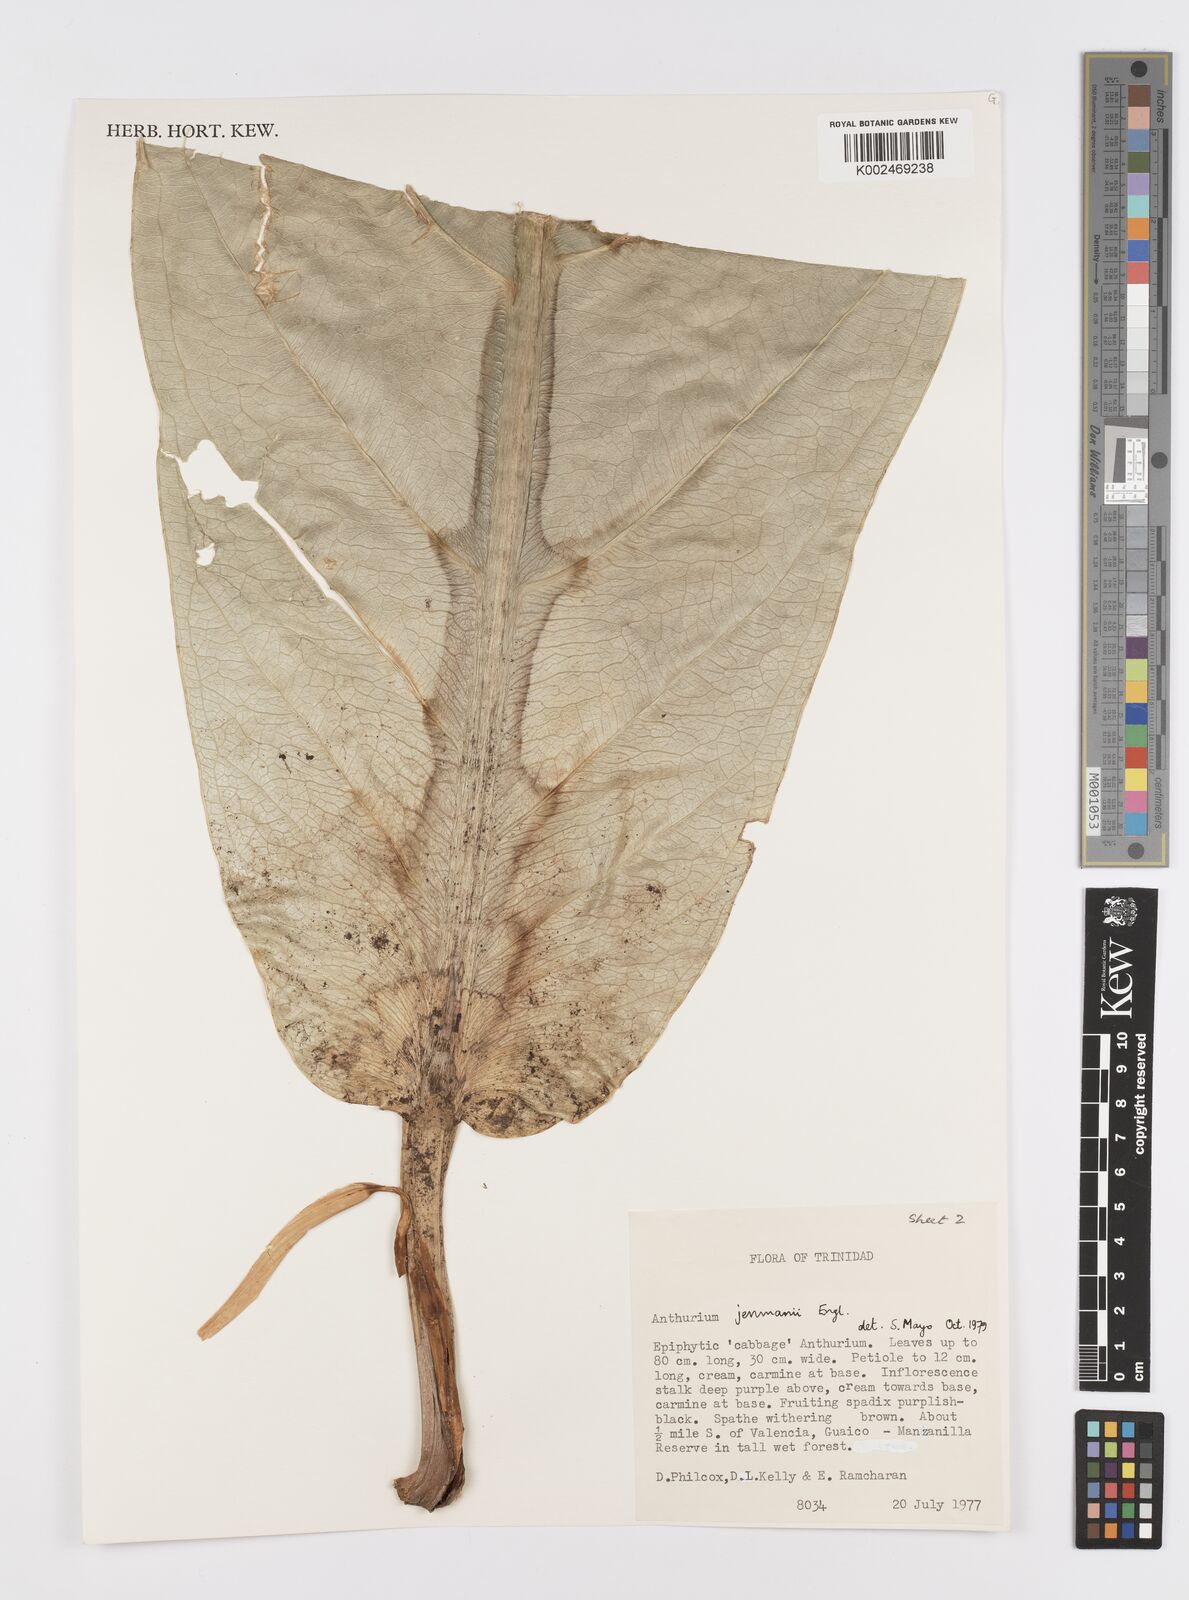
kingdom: Plantae
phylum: Tracheophyta
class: Liliopsida
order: Alismatales
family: Araceae
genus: Anthurium
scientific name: Anthurium jenmanii
